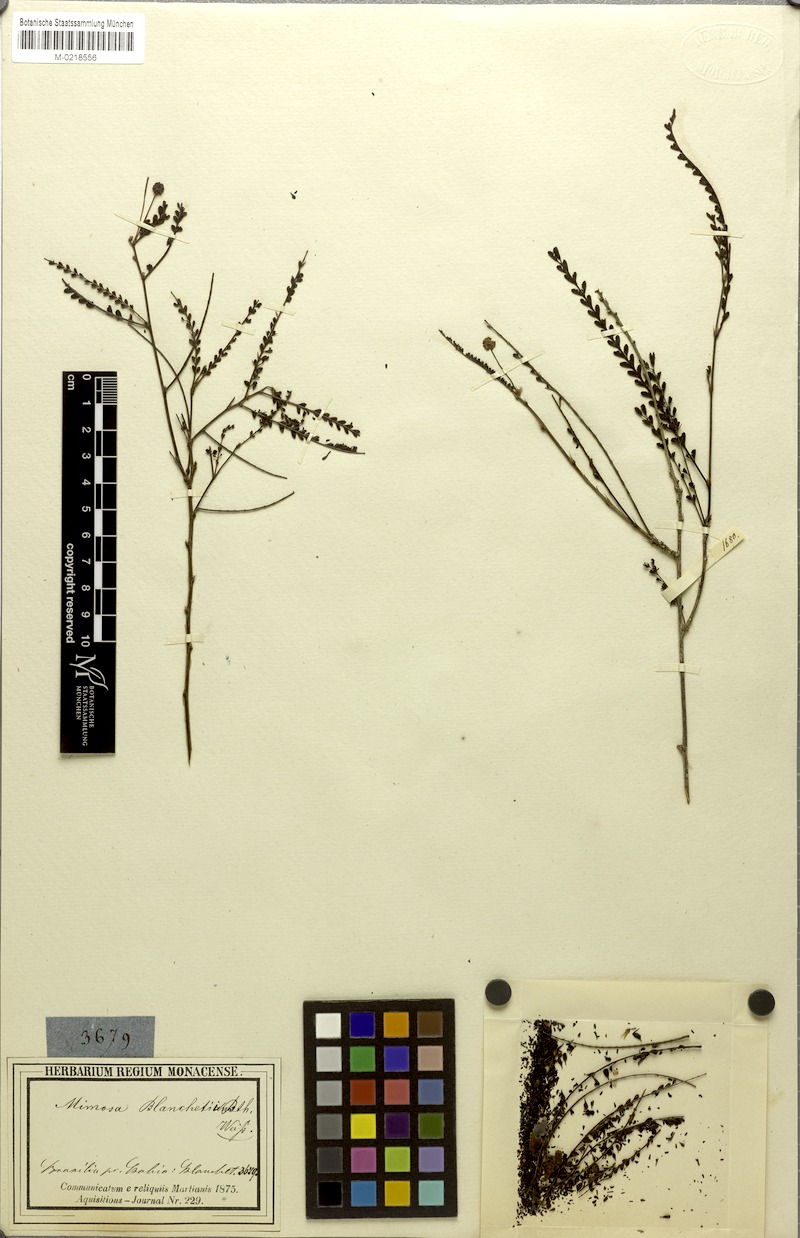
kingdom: Plantae
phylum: Tracheophyta
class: Magnoliopsida
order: Fabales
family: Fabaceae
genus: Mimosa
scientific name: Mimosa blanchetii
